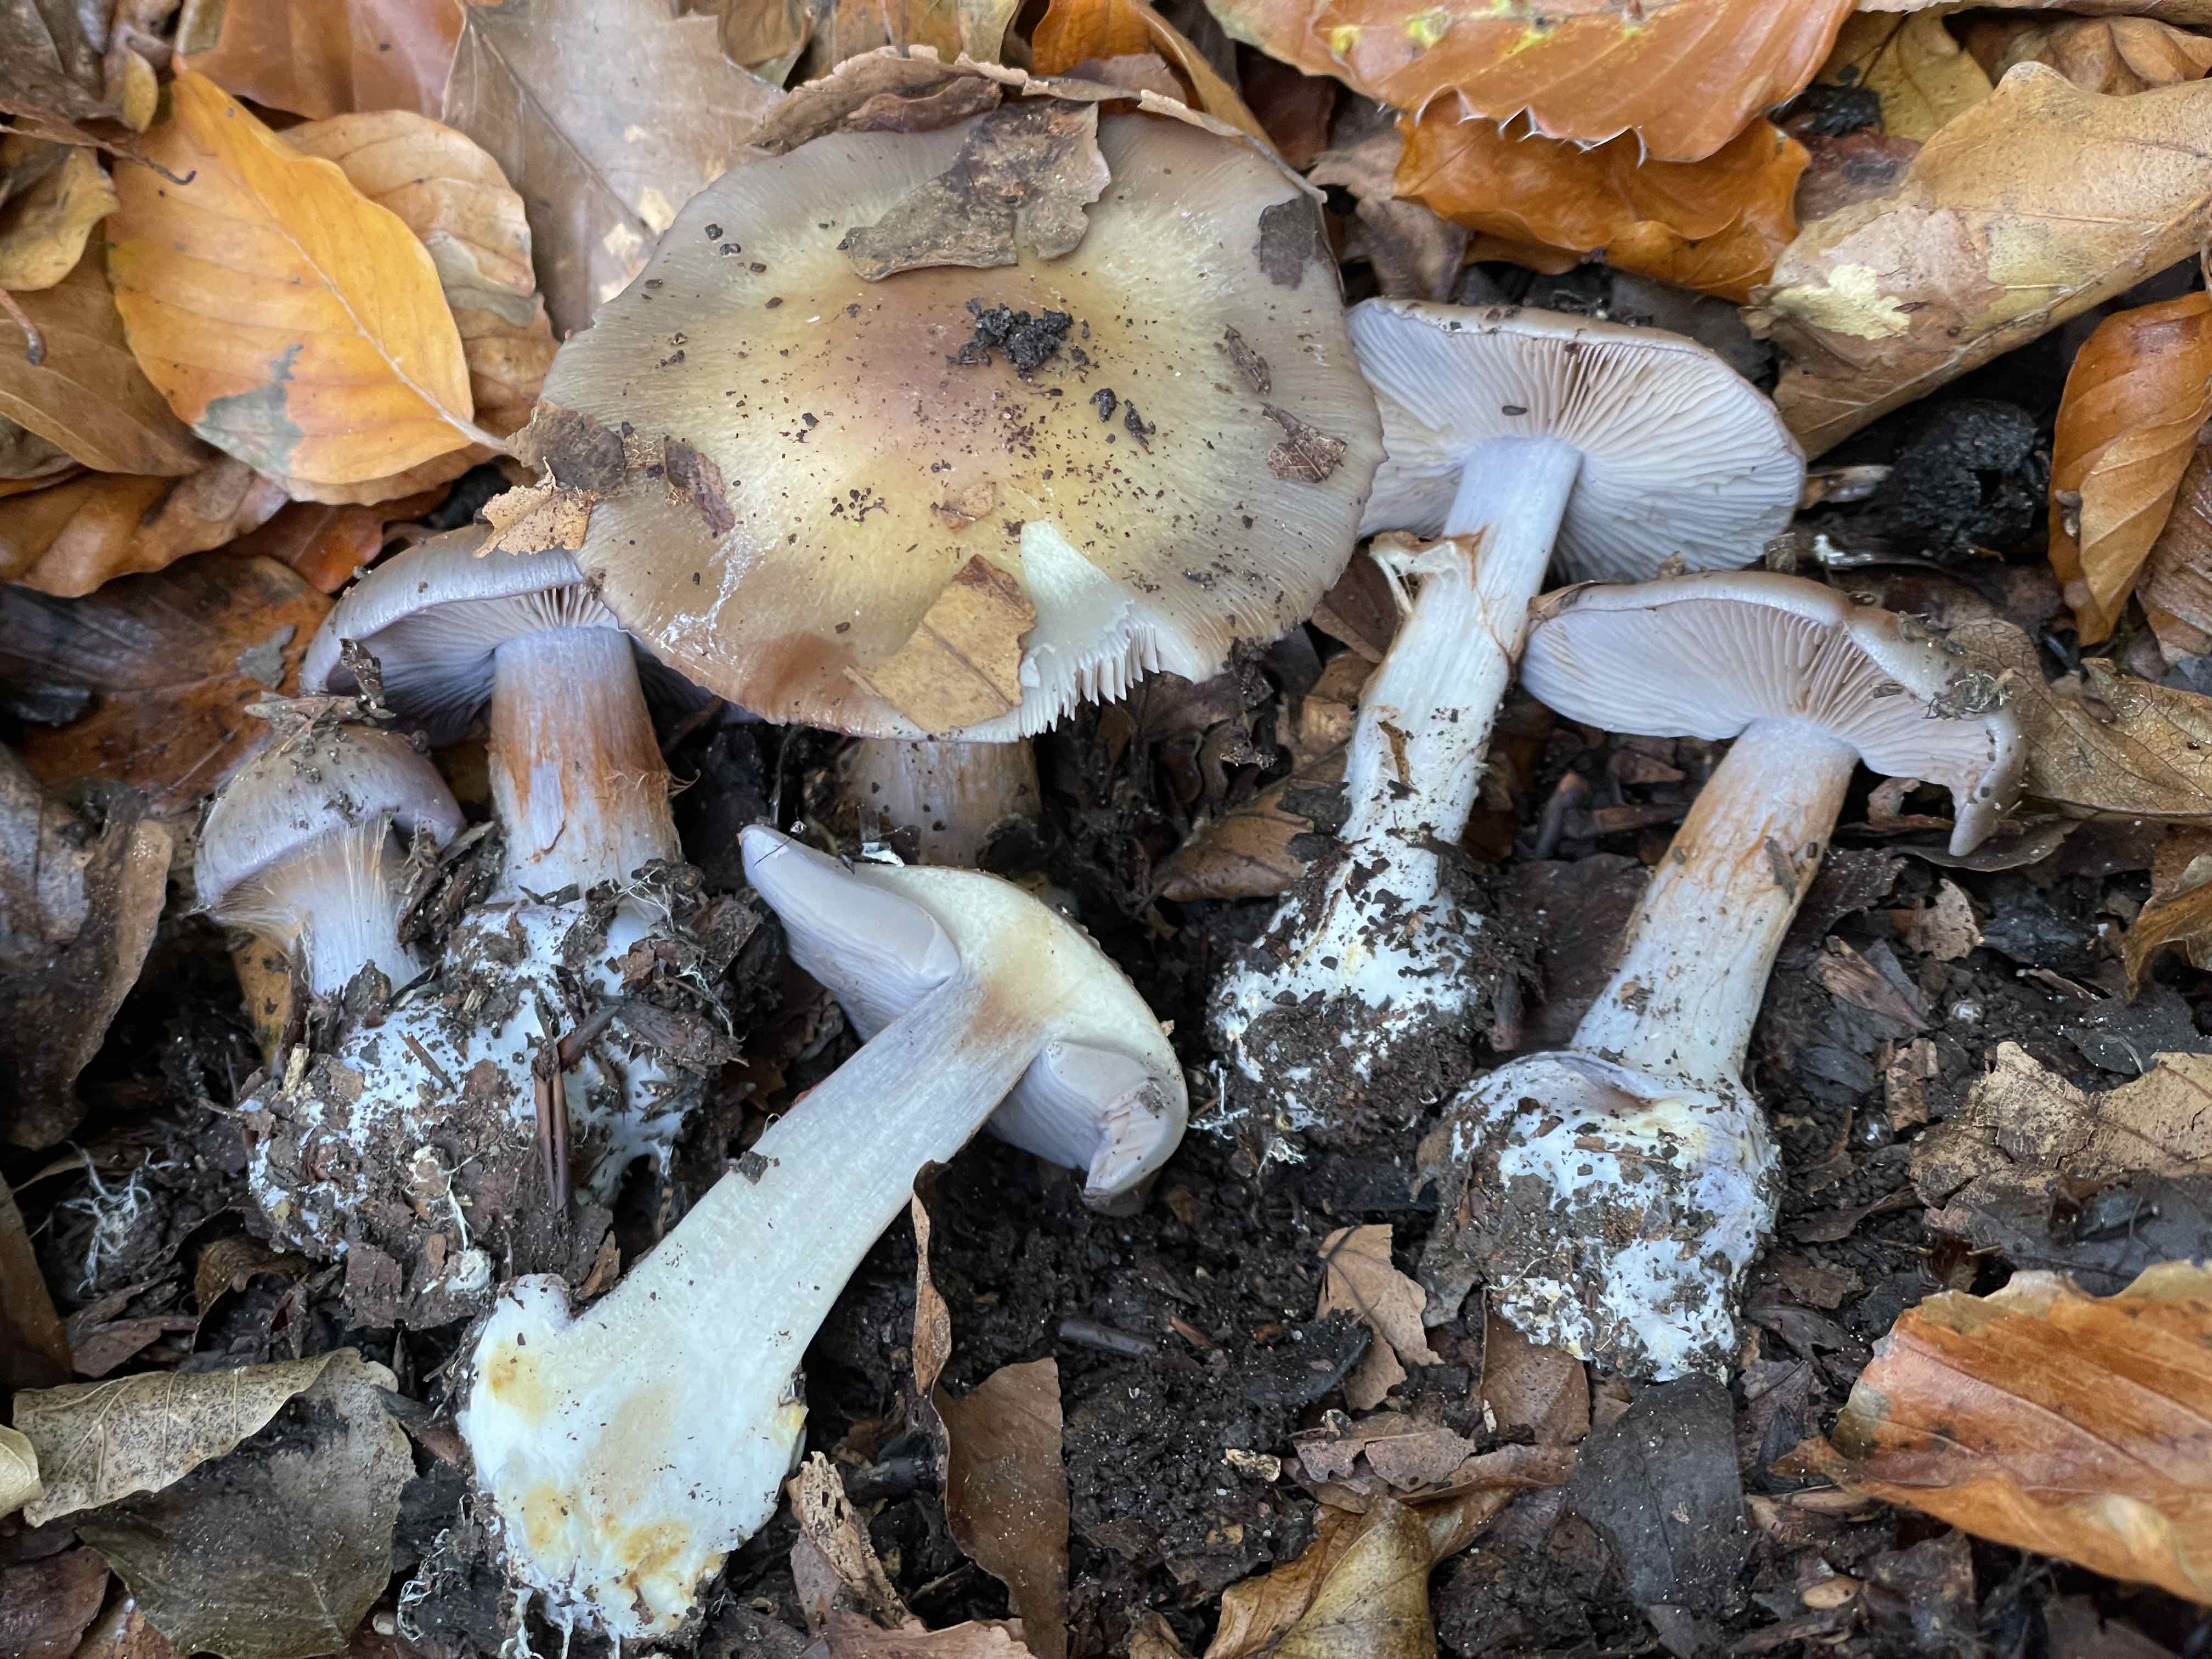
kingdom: Fungi
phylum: Basidiomycota
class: Agaricomycetes
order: Agaricales
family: Cortinariaceae
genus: Phlegmacium
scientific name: Phlegmacium viridocoeruleum
